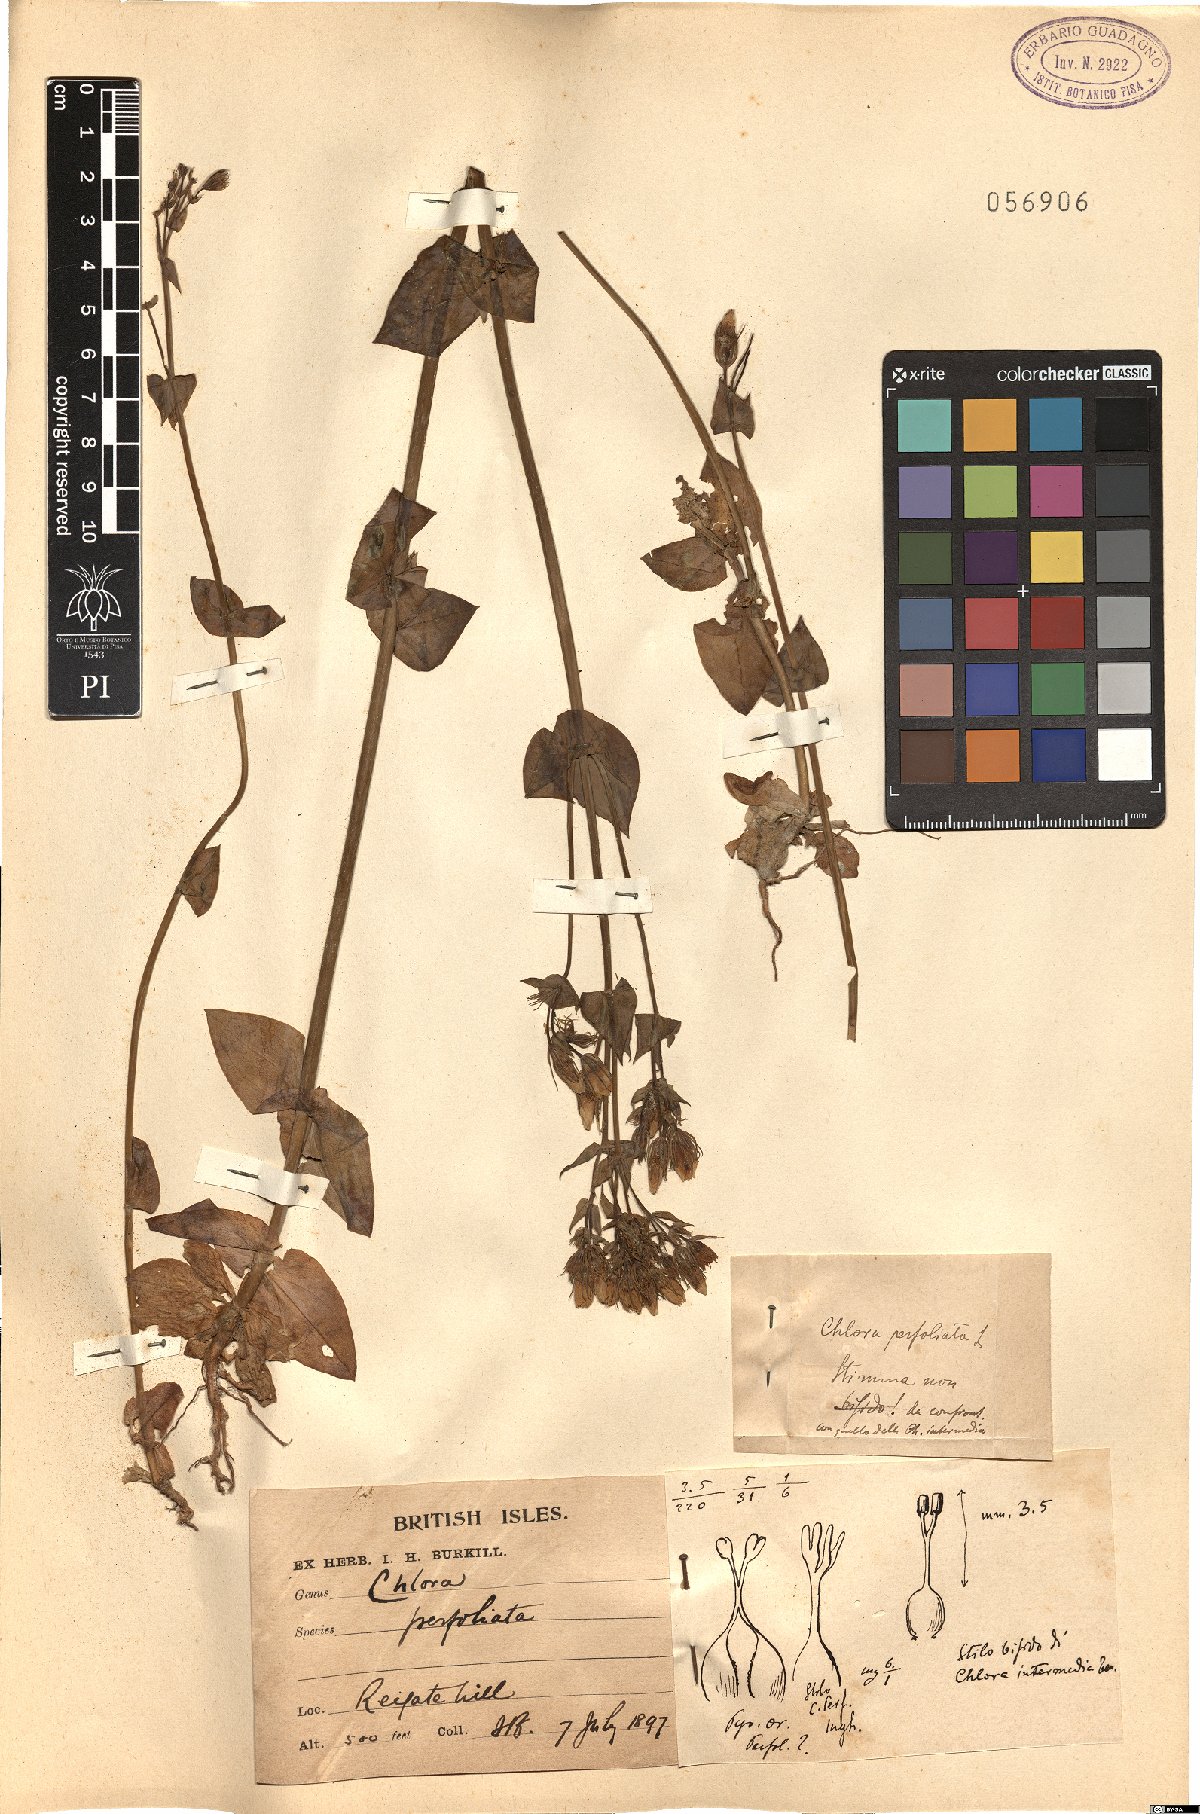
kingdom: Plantae
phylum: Tracheophyta
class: Magnoliopsida
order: Gentianales
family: Gentianaceae
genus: Blackstonia
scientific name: Blackstonia perfoliata
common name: Yellow-wort
